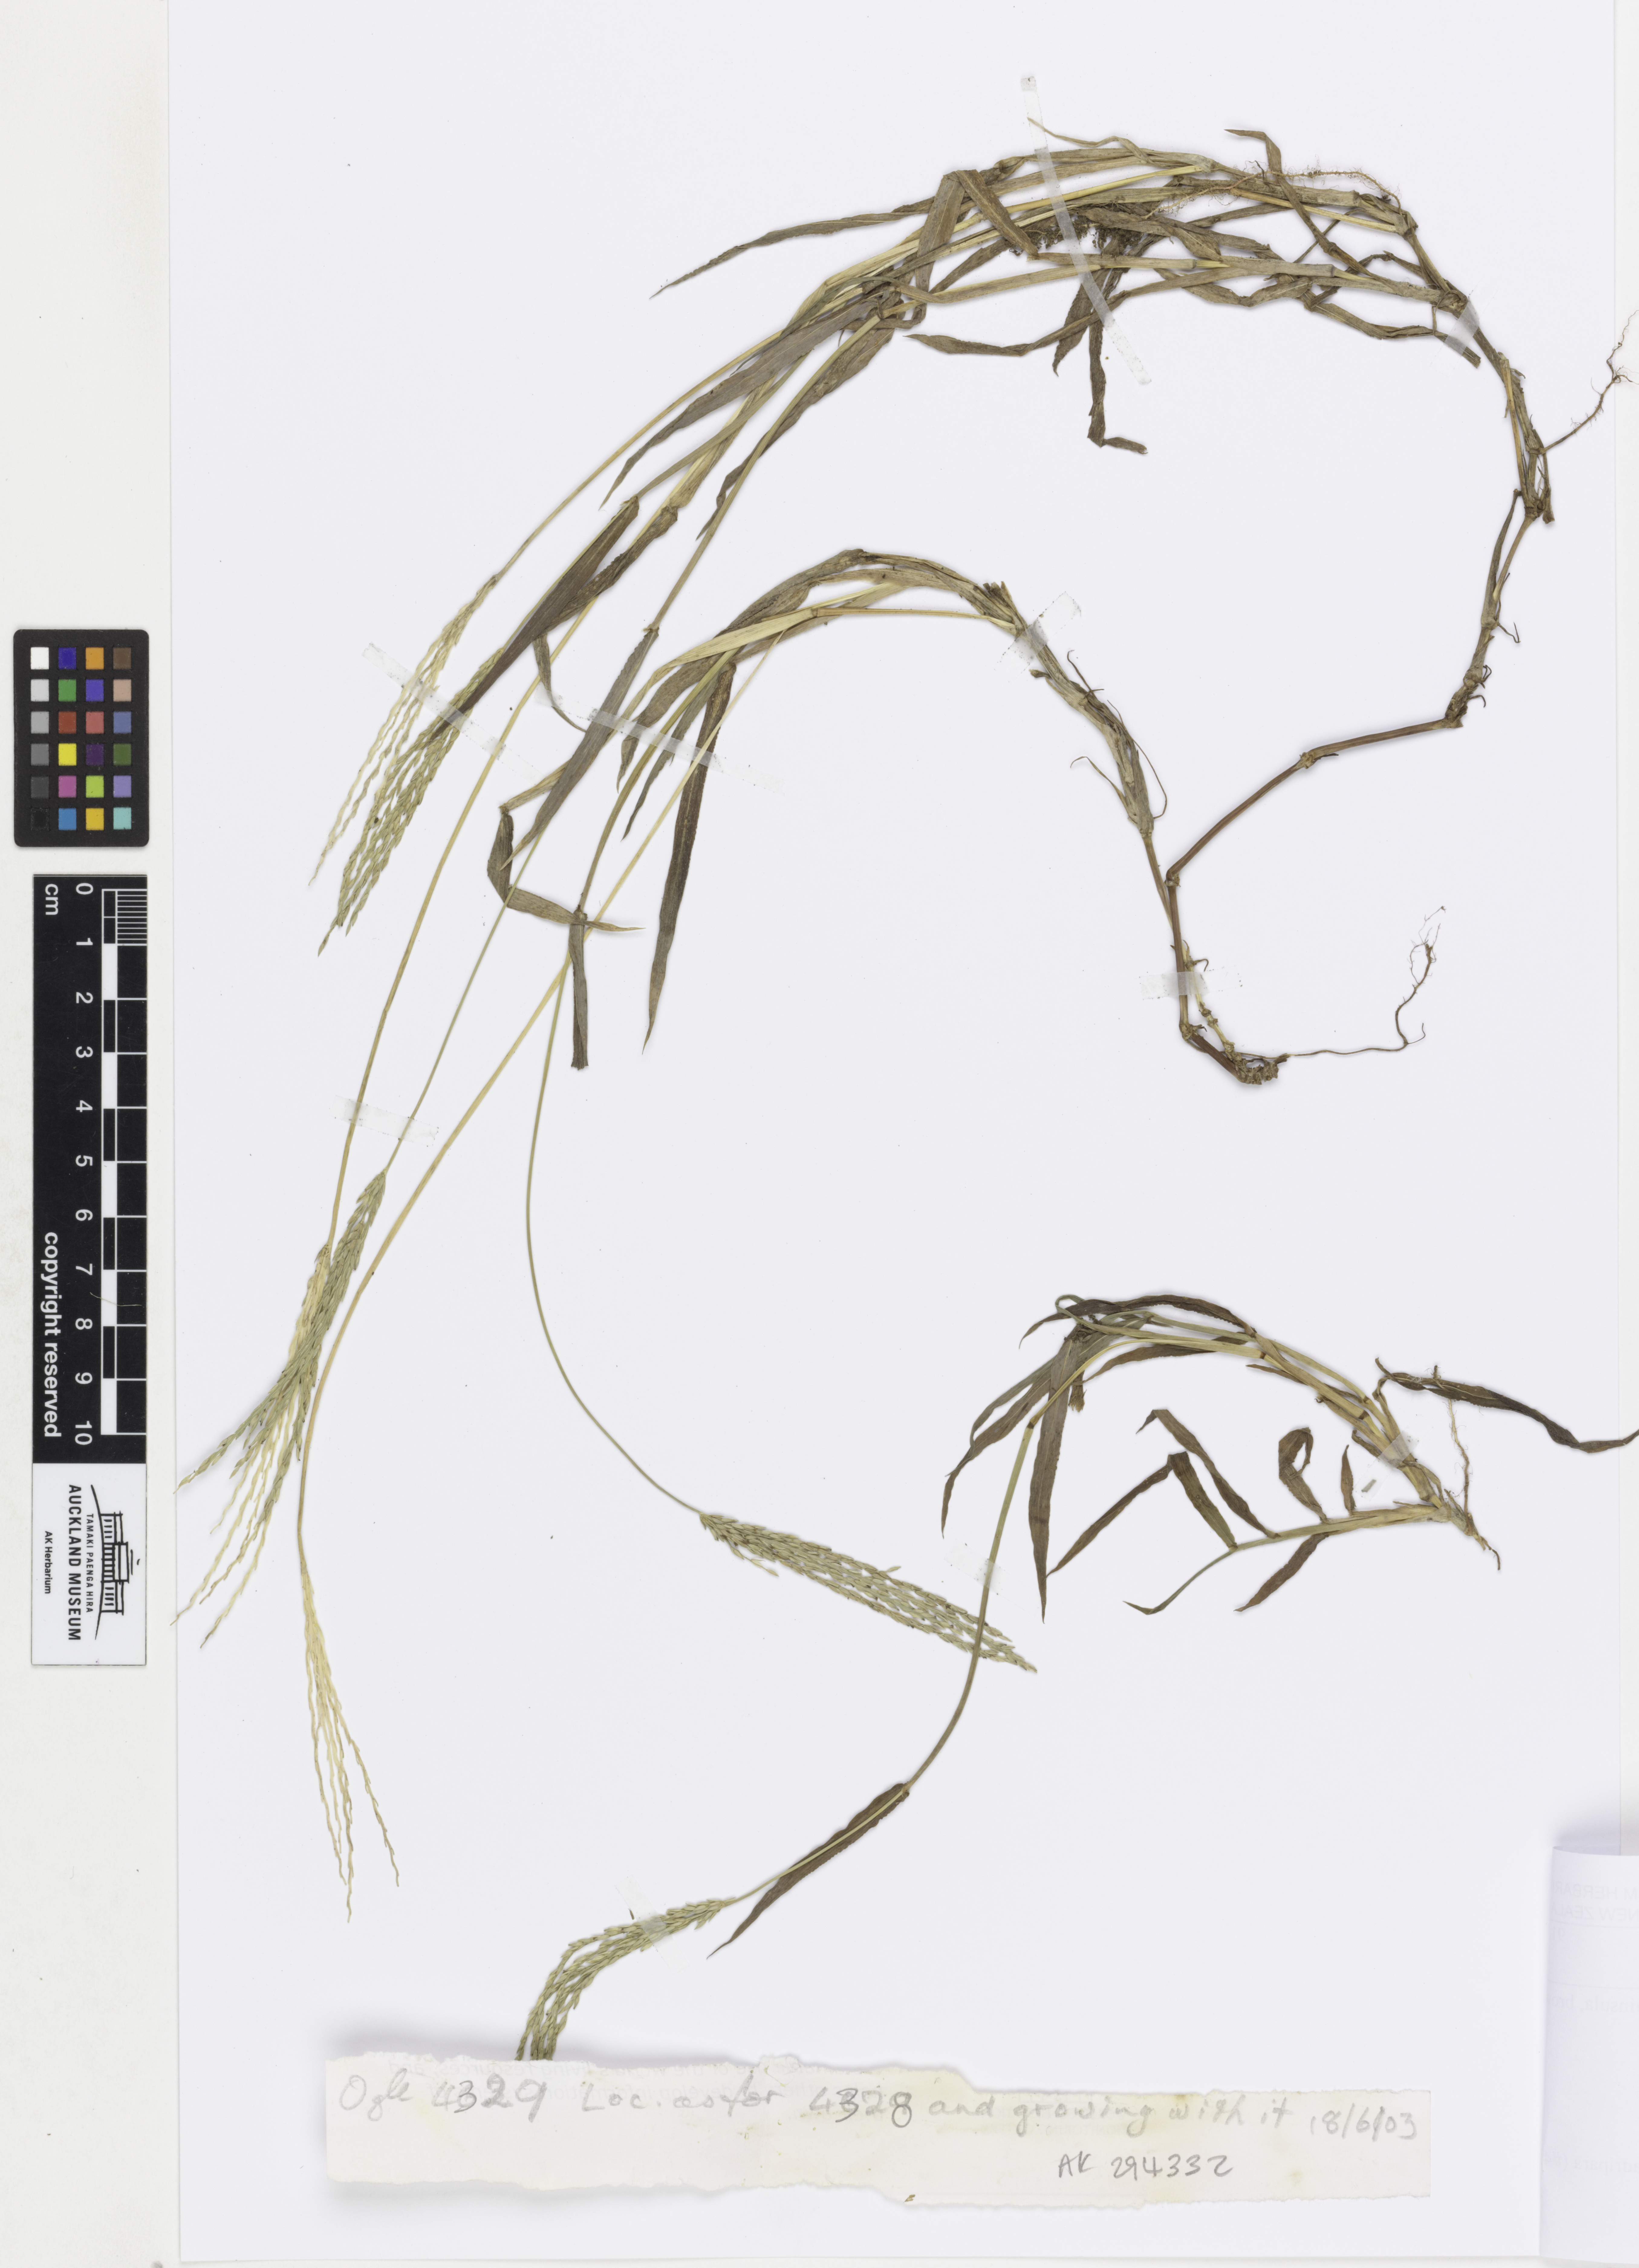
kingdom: Plantae
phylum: Tracheophyta
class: Liliopsida
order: Poales
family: Poaceae
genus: Digitaria
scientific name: Digitaria setigera
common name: East indian crabgrass
